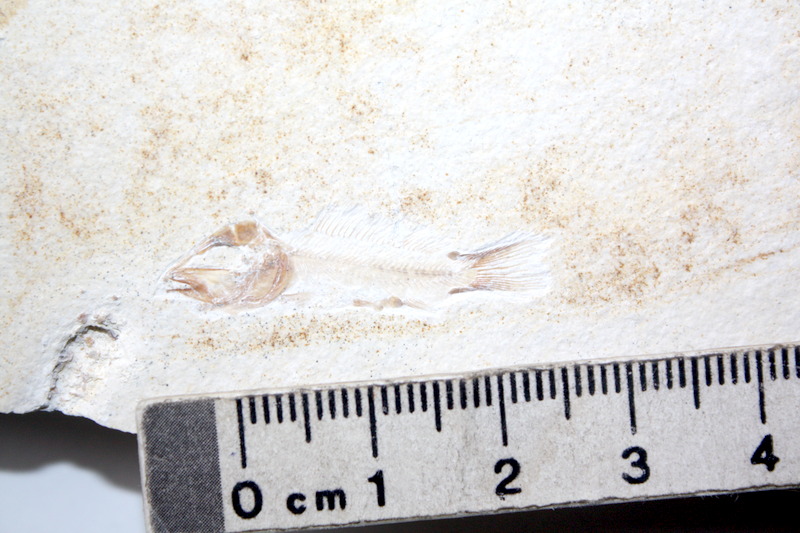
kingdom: Animalia
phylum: Chordata
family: Macrosemiidae
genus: Notagogus
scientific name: Notagogus denticulatus
